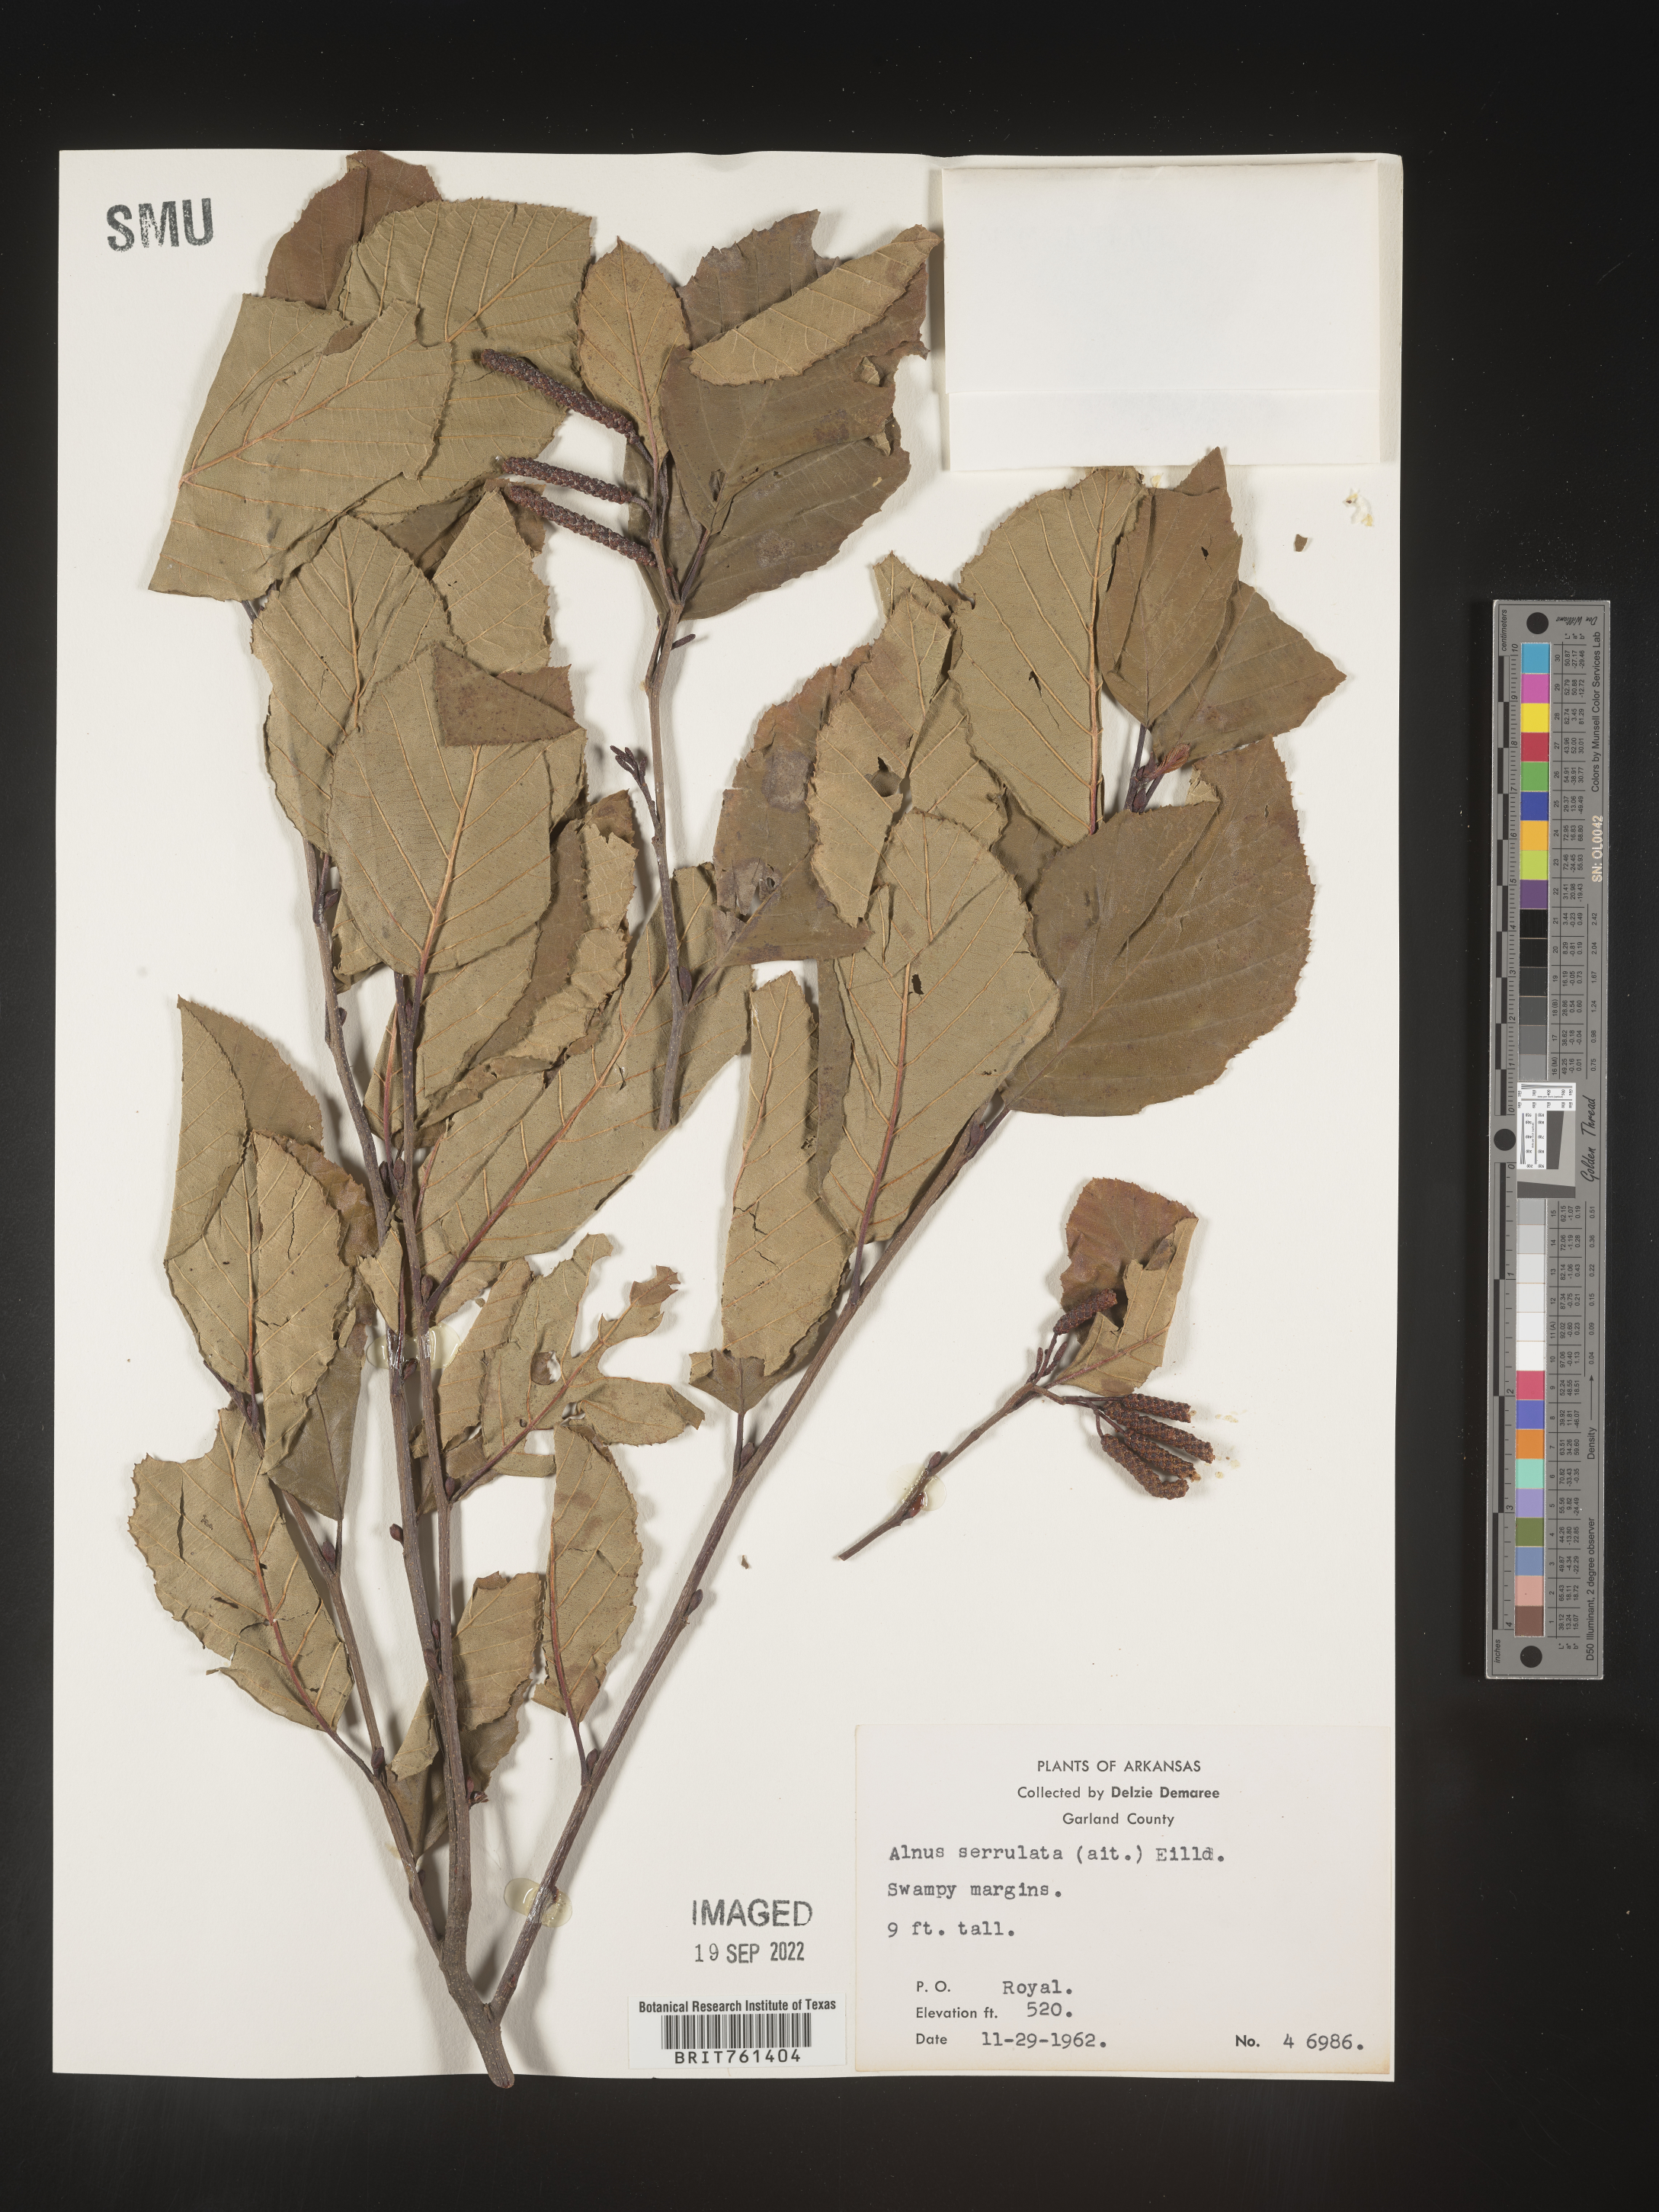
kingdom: Plantae
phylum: Tracheophyta
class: Magnoliopsida
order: Fagales
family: Betulaceae
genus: Alnus
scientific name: Alnus serrulata
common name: Hazel alder
